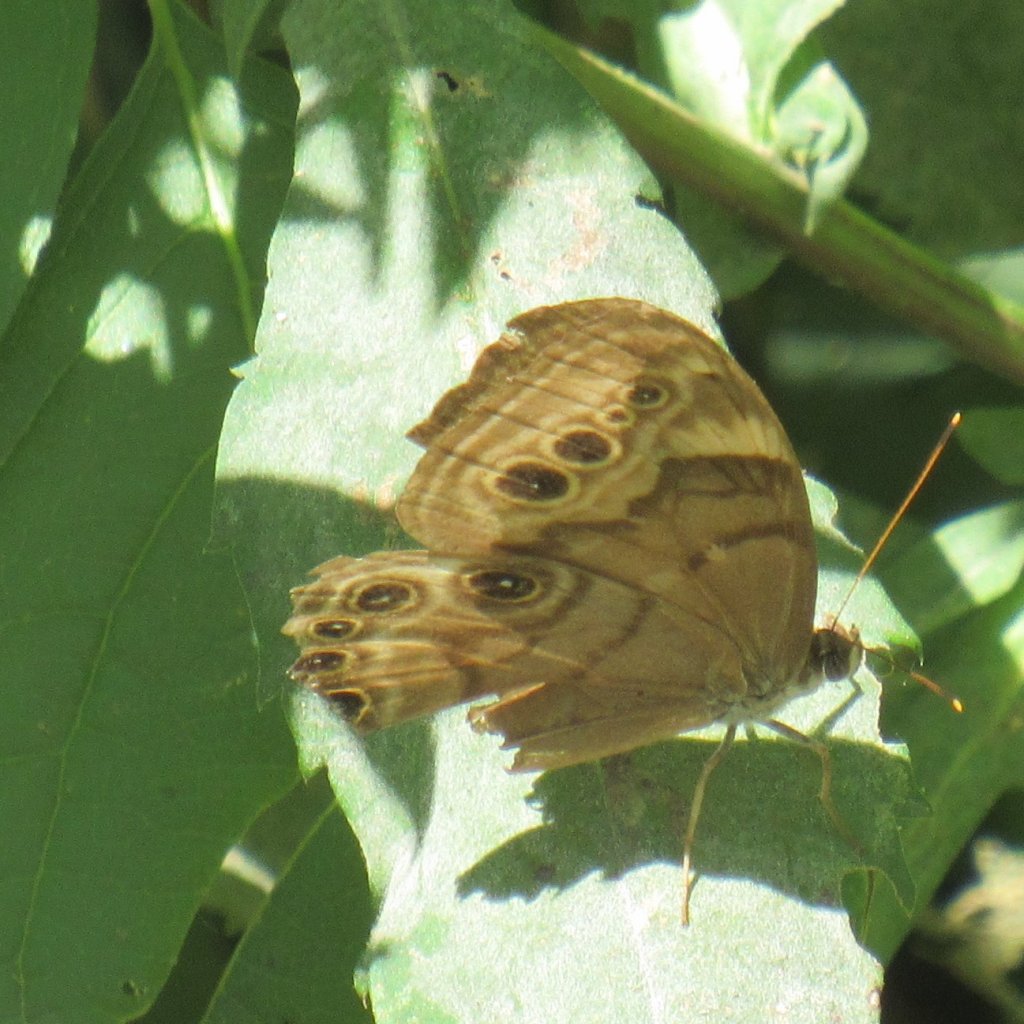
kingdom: Animalia
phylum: Arthropoda
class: Insecta
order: Lepidoptera
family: Nymphalidae
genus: Lethe
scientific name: Lethe anthedon
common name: Northern Pearly-Eye
